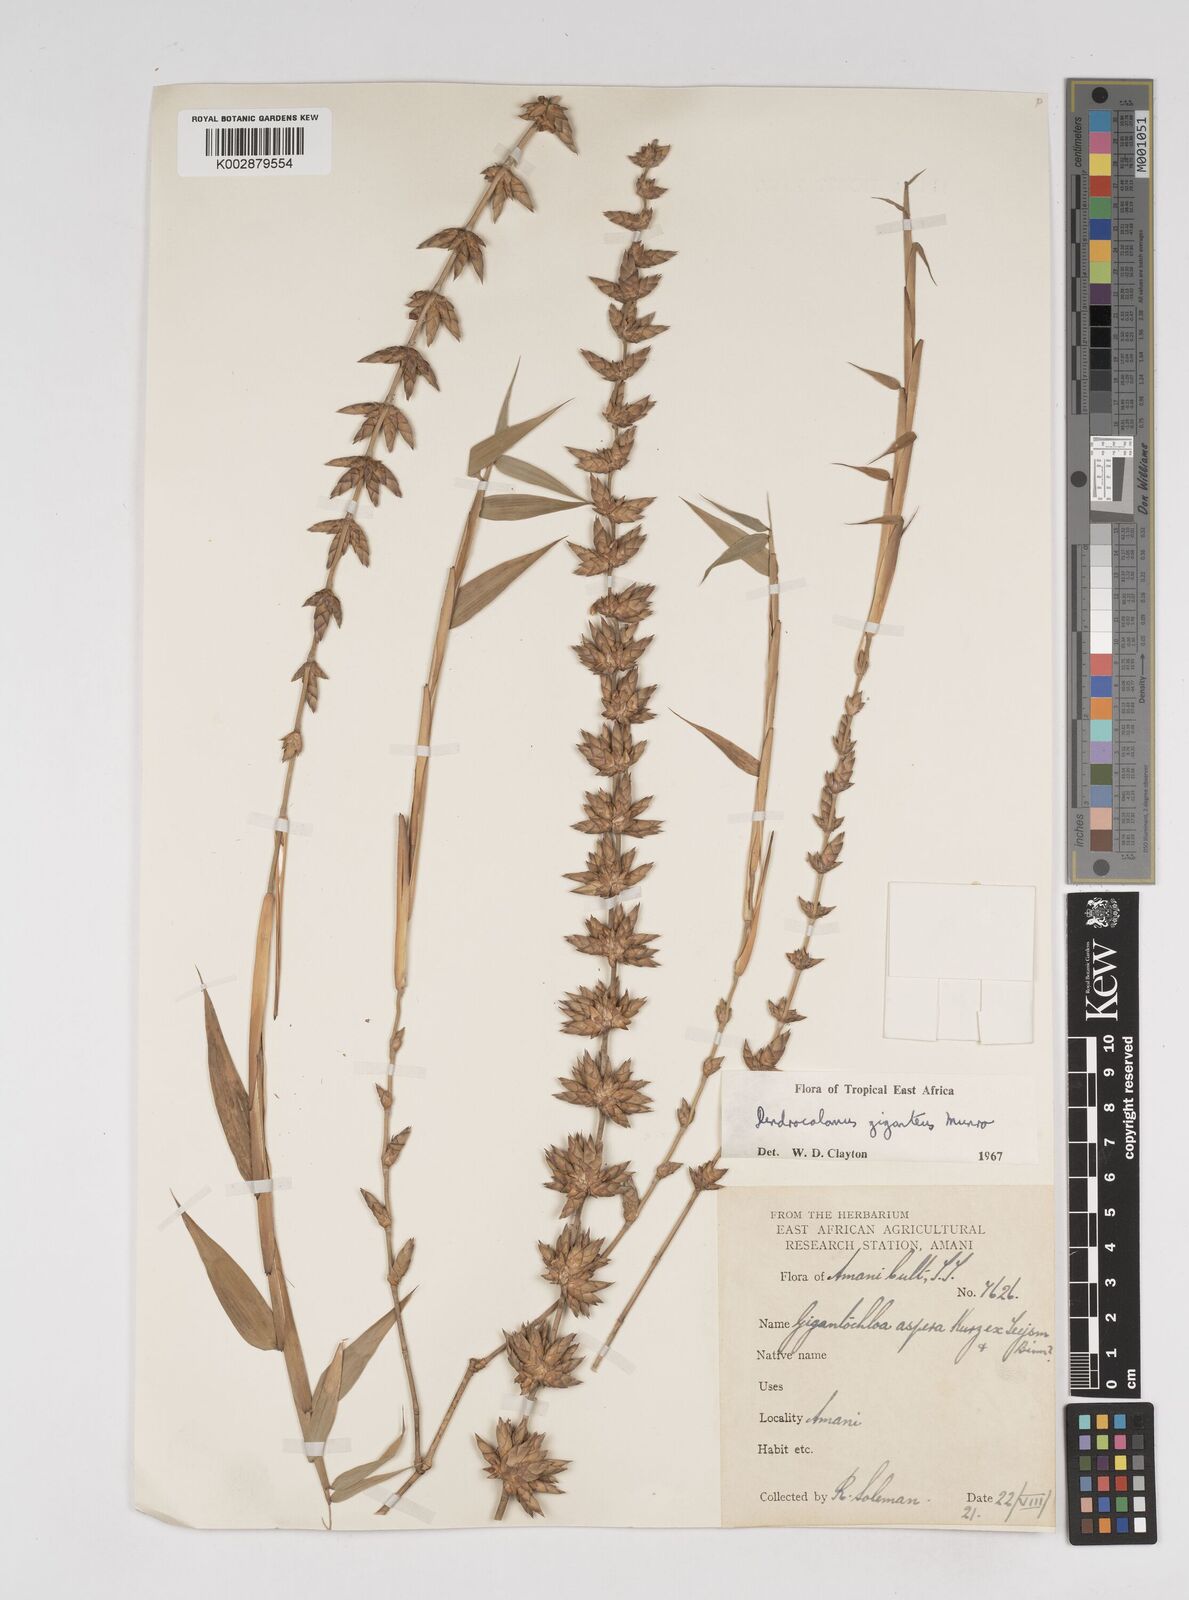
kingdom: Plantae
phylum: Tracheophyta
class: Liliopsida
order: Poales
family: Poaceae
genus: Dendrocalamus
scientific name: Dendrocalamus giganteus
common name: Giant bamboo
